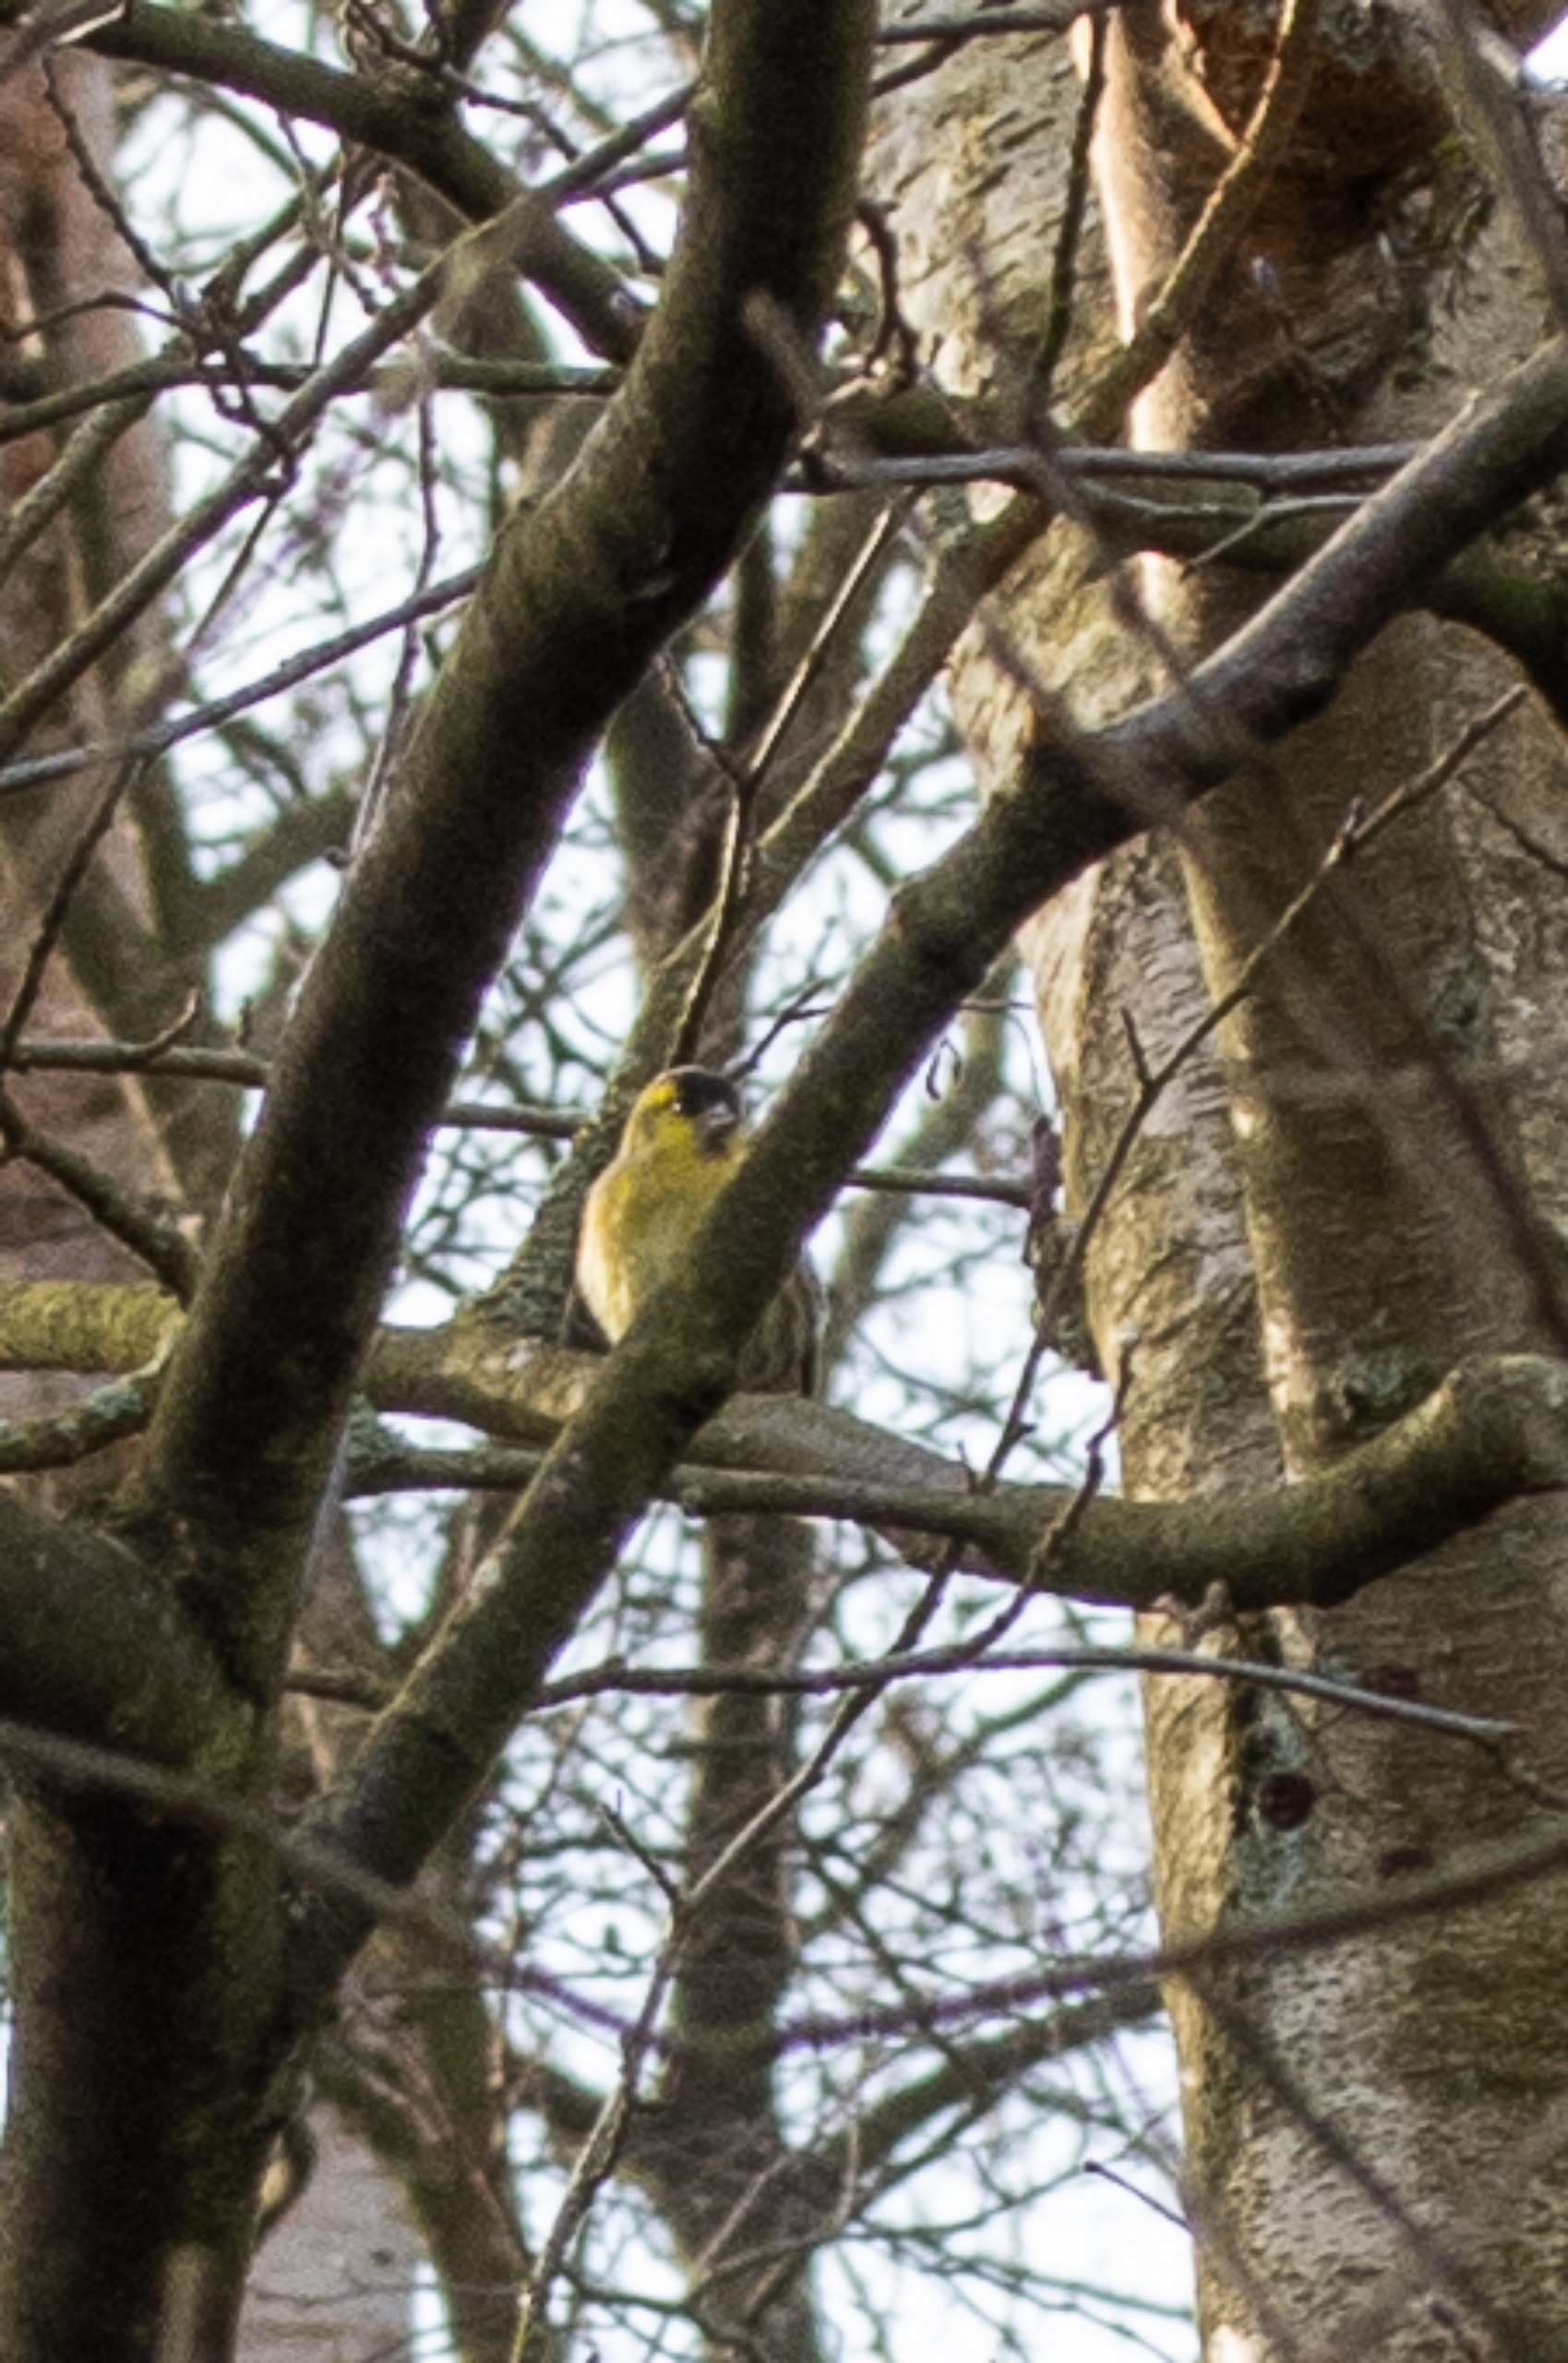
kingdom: Animalia
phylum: Chordata
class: Aves
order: Passeriformes
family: Fringillidae
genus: Spinus
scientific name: Spinus spinus
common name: Grønsisken
